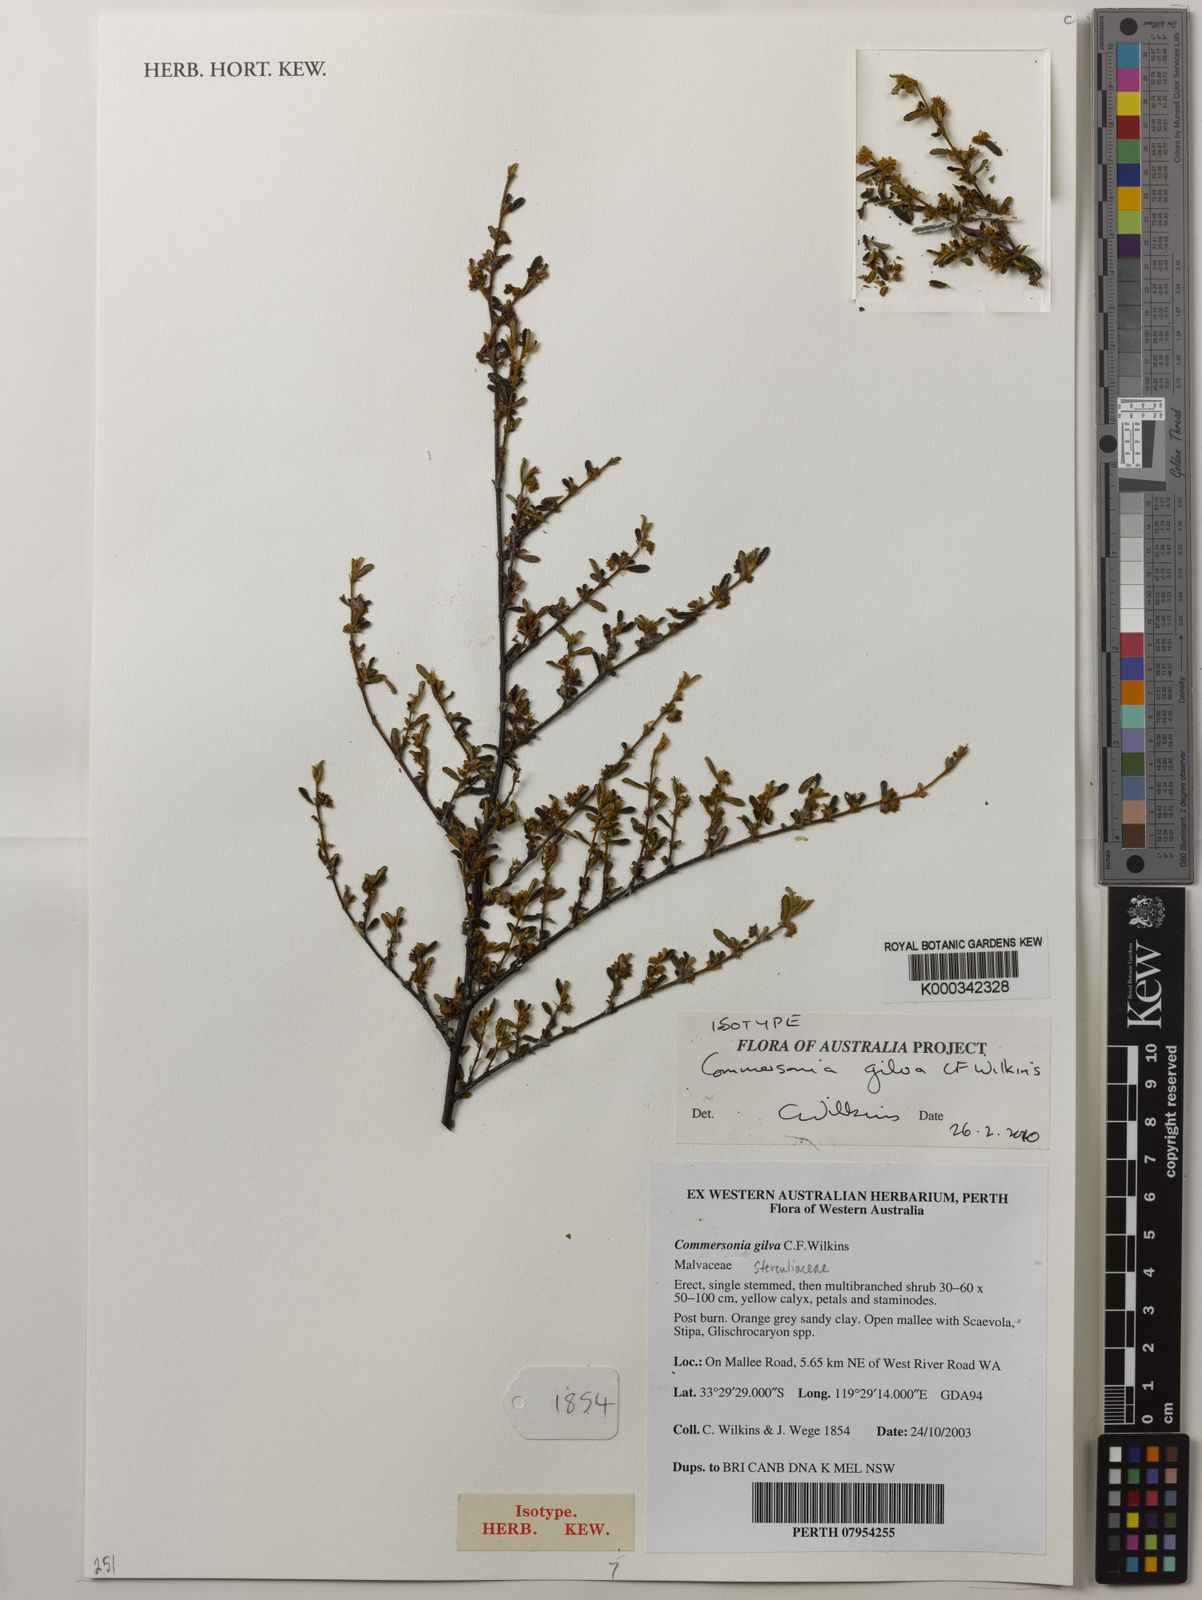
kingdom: Plantae
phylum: Tracheophyta
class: Magnoliopsida
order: Malvales
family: Malvaceae
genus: Commersonia
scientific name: Commersonia gilva
